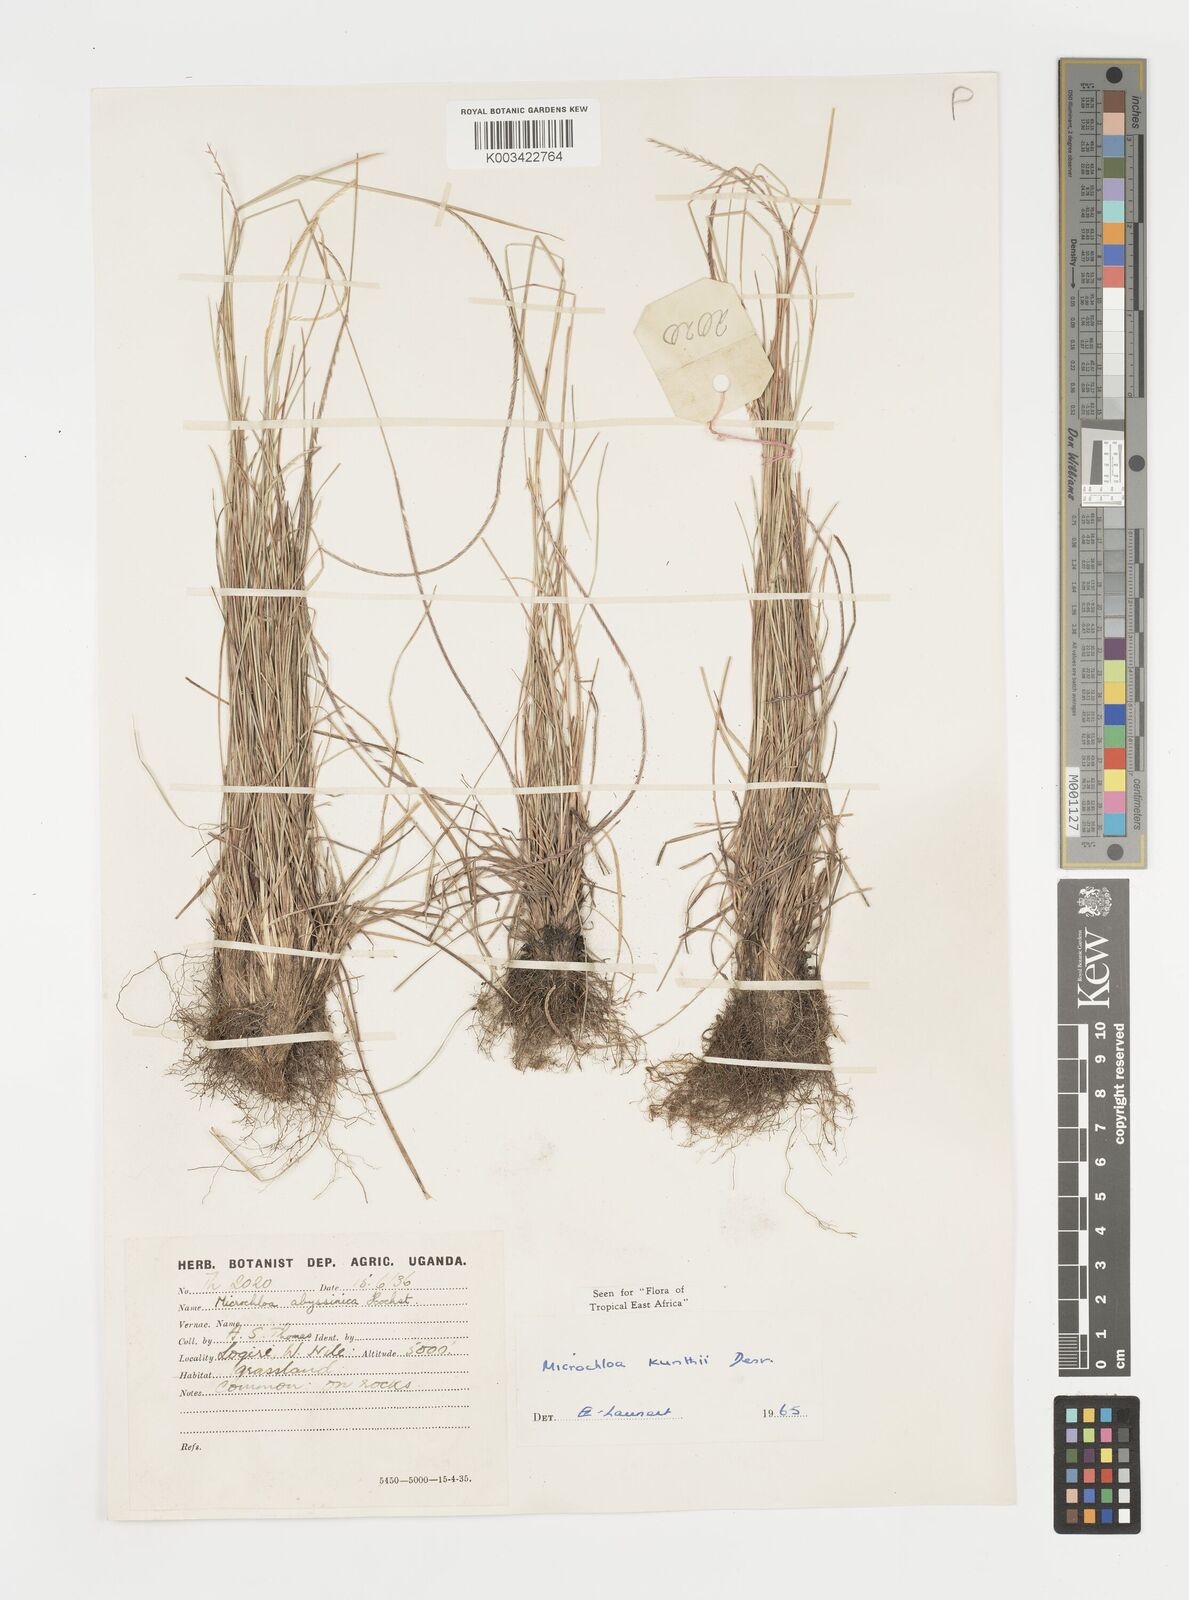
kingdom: Plantae
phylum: Tracheophyta
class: Liliopsida
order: Poales
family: Poaceae
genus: Microchloa
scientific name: Microchloa kunthii
